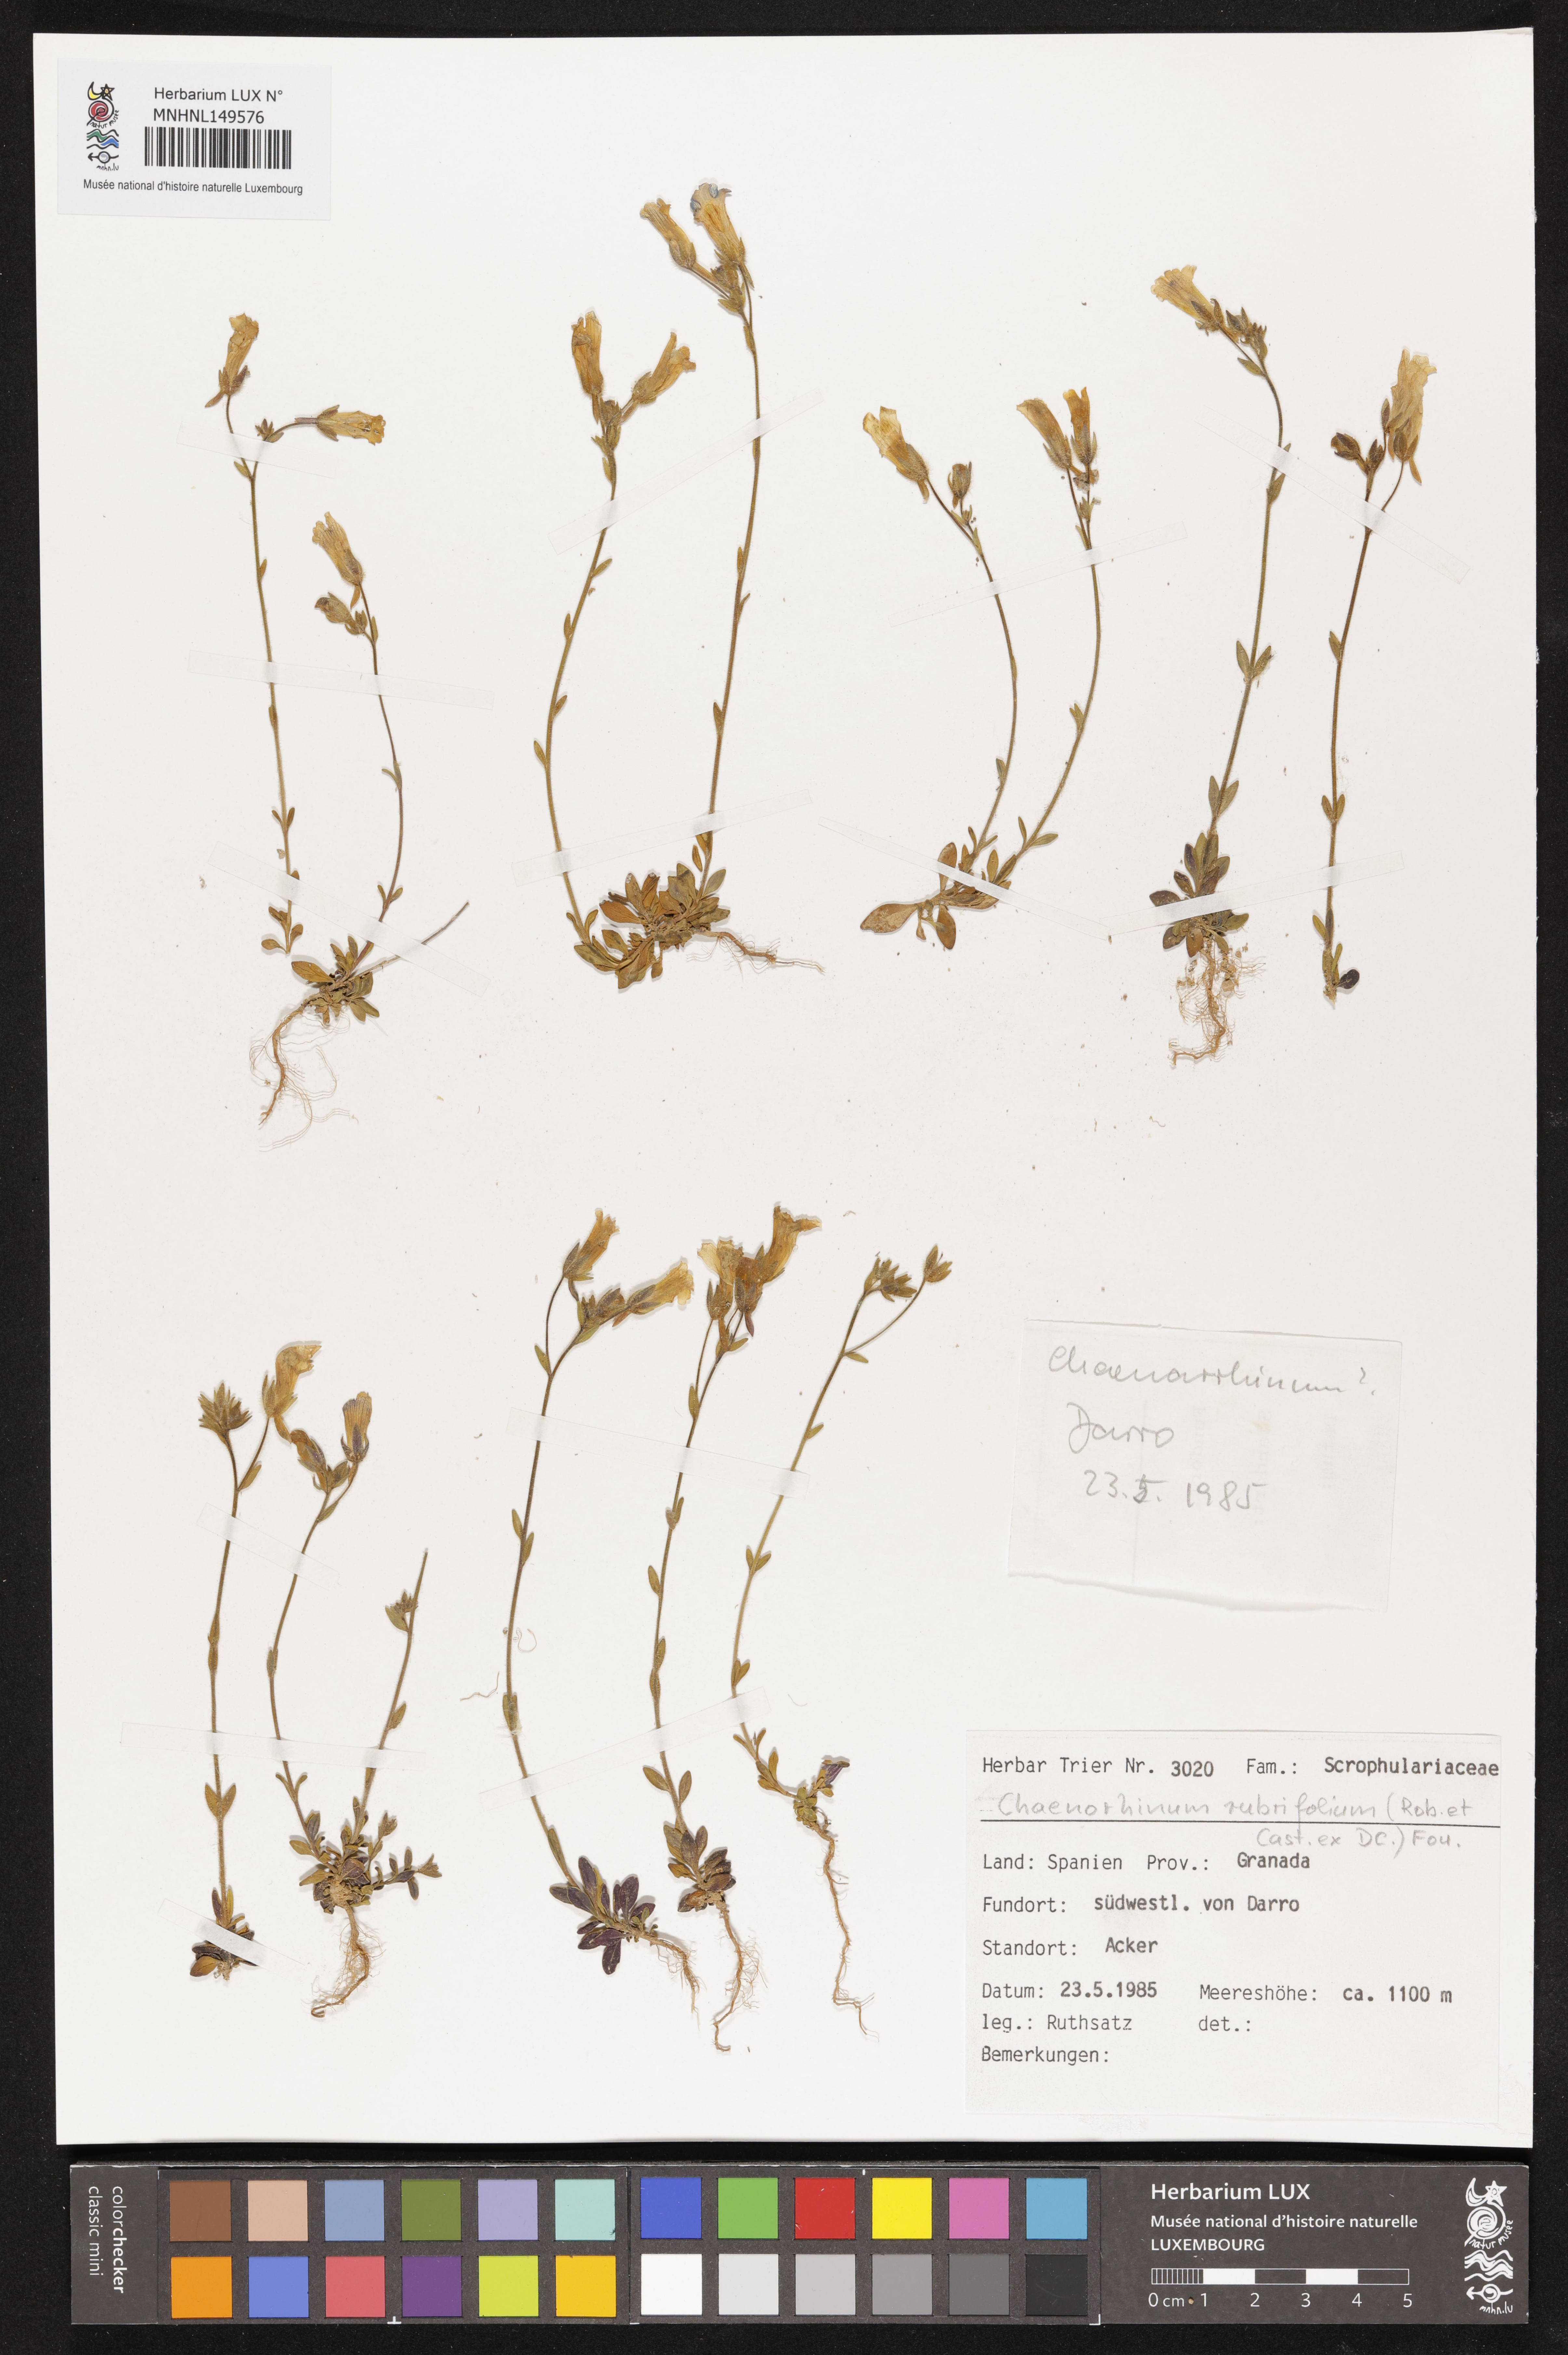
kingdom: Plantae
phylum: Tracheophyta
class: Magnoliopsida
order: Lamiales
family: Plantaginaceae
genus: Chaenorhinum
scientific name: Chaenorhinum rubrifolium
